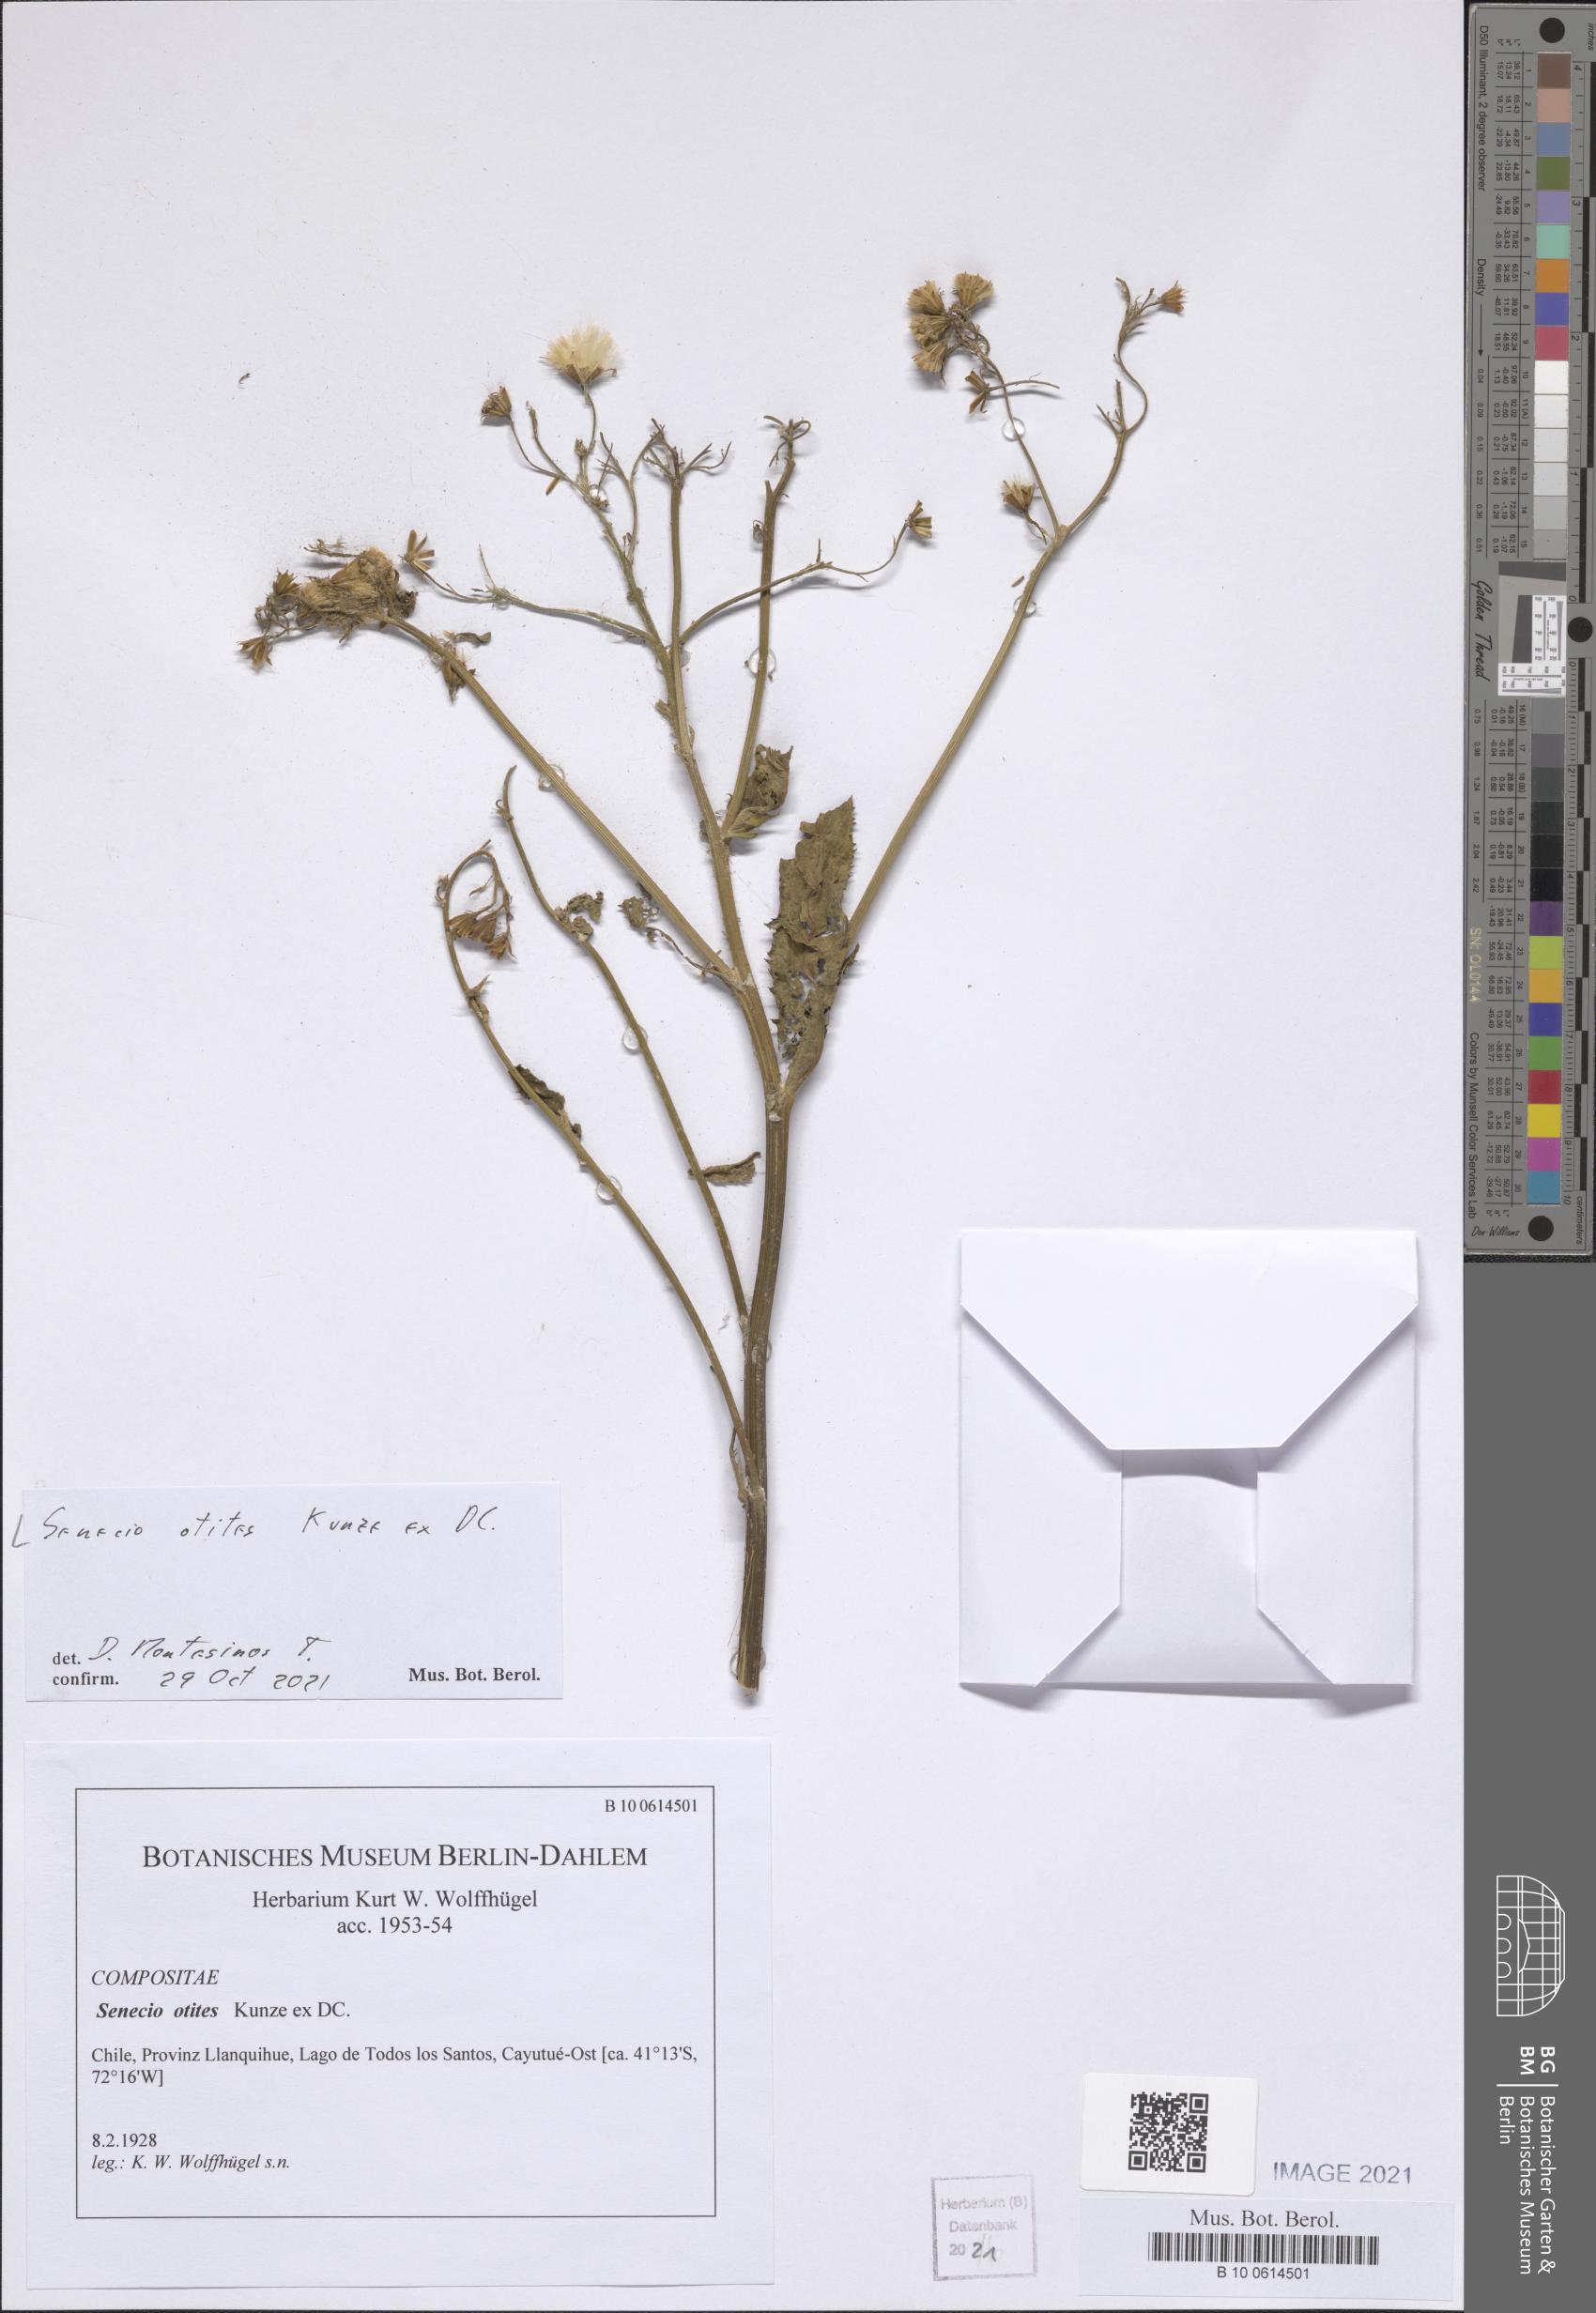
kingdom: Plantae
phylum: Tracheophyta
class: Magnoliopsida
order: Asterales
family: Asteraceae
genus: Senecio
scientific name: Senecio otites
